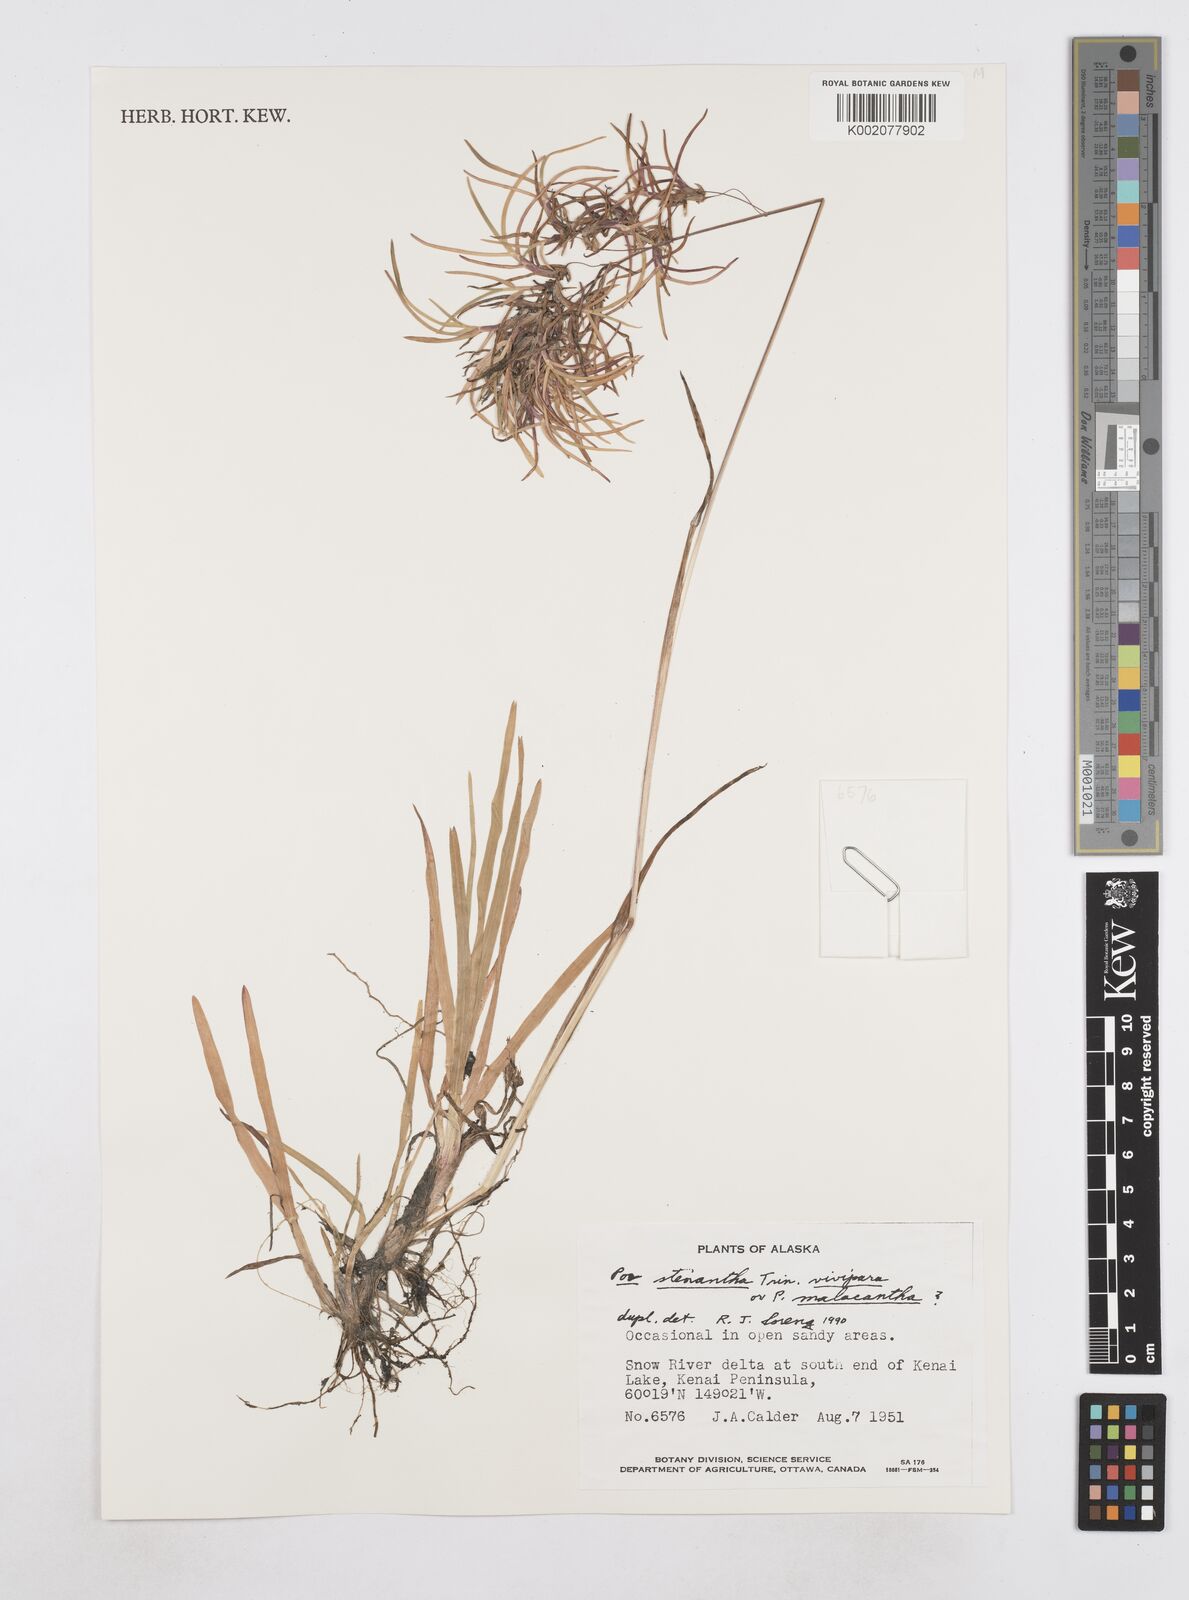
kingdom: Plantae
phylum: Tracheophyta
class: Liliopsida
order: Poales
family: Poaceae
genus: Poa
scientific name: Poa stenantha
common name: Narrow-flowered bluegrass
